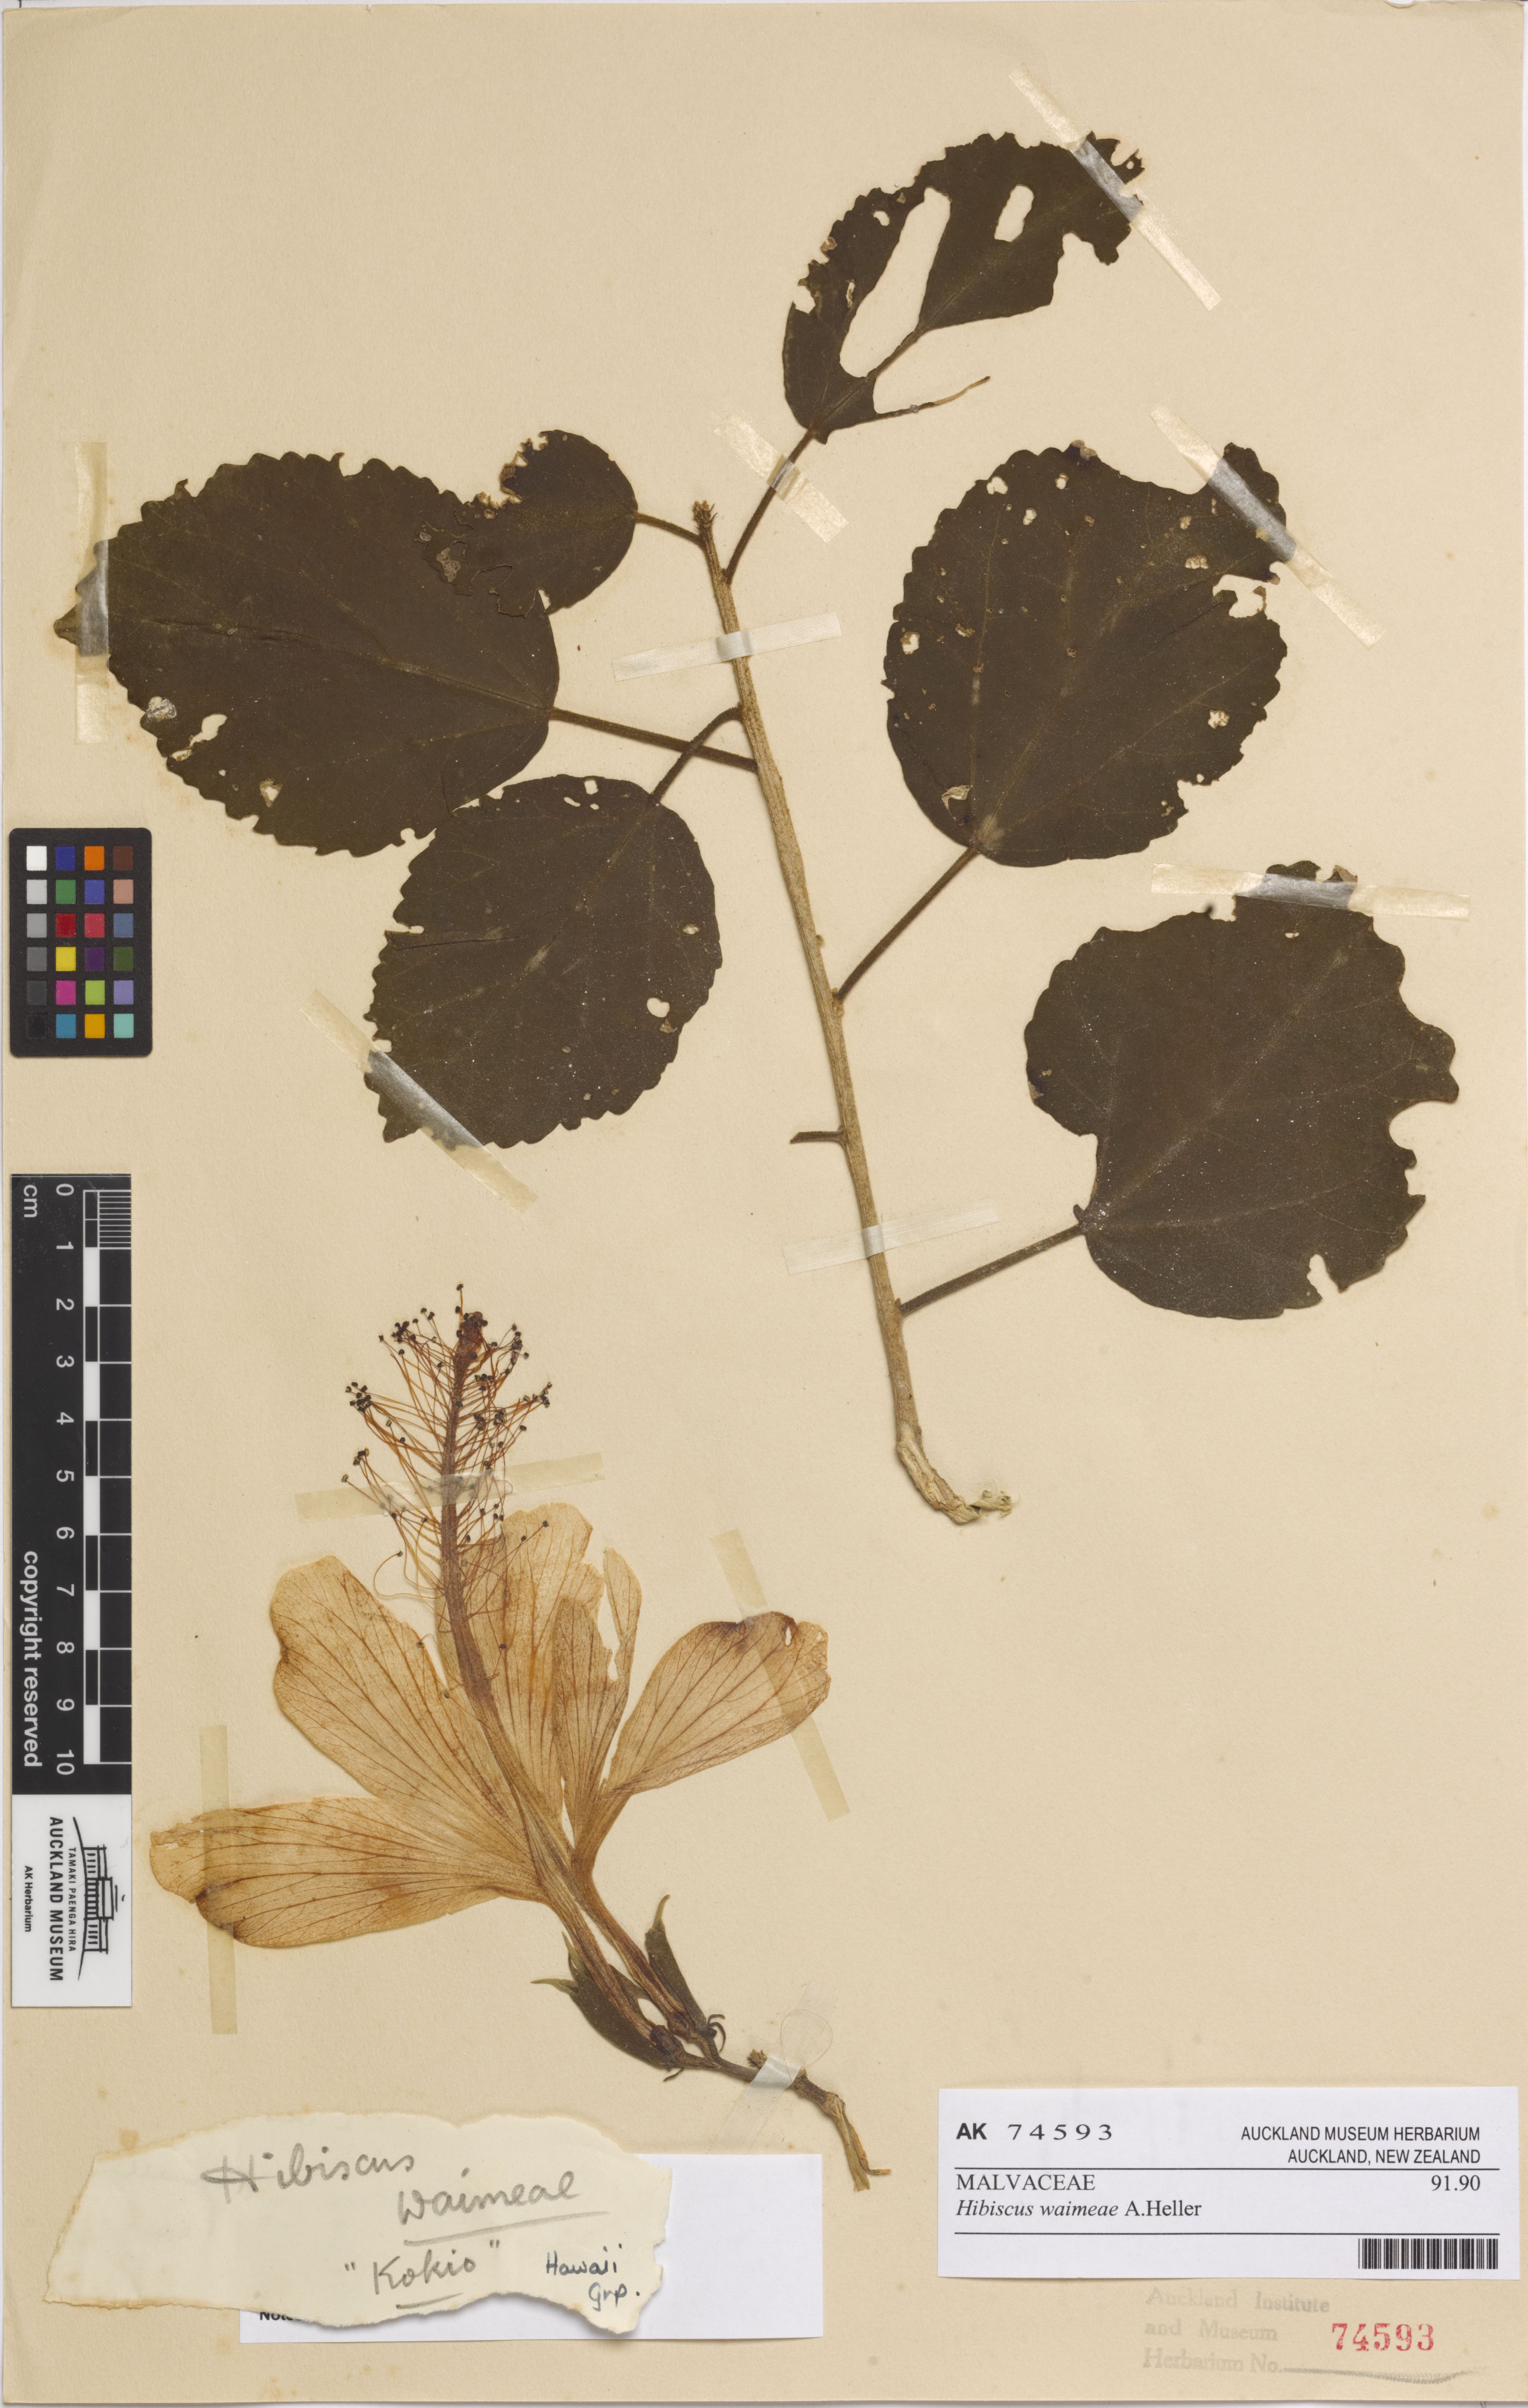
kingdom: Plantae
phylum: Tracheophyta
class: Magnoliopsida
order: Malvales
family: Malvaceae
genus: Hibiscus
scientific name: Hibiscus waimeae
